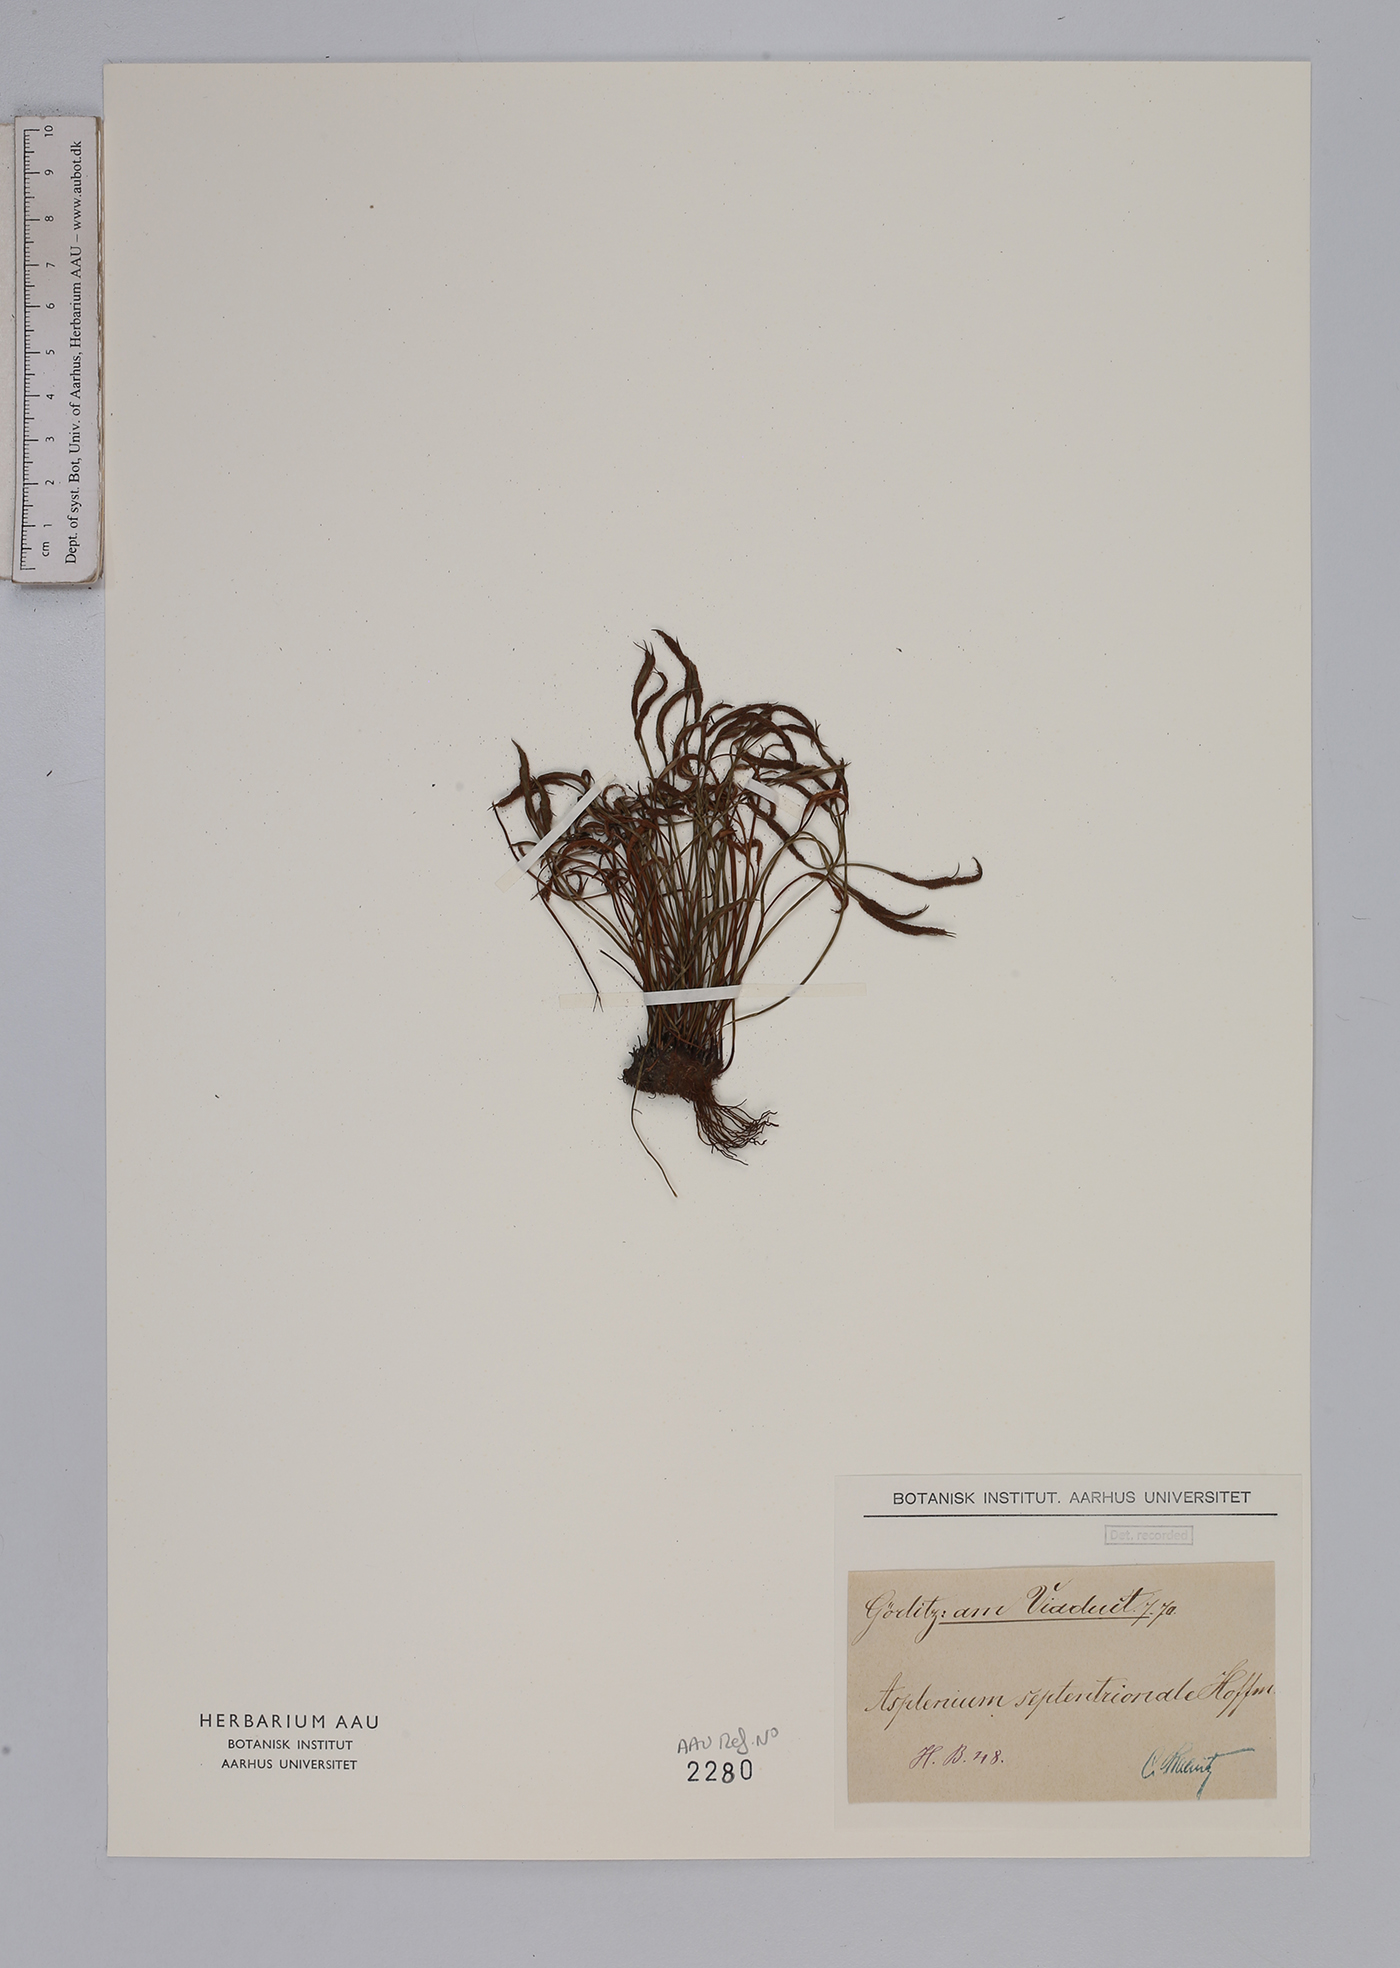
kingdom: Plantae
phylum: Tracheophyta
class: Polypodiopsida
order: Polypodiales
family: Aspleniaceae
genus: Asplenium
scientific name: Asplenium septentrionale
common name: Forked spleenwort
